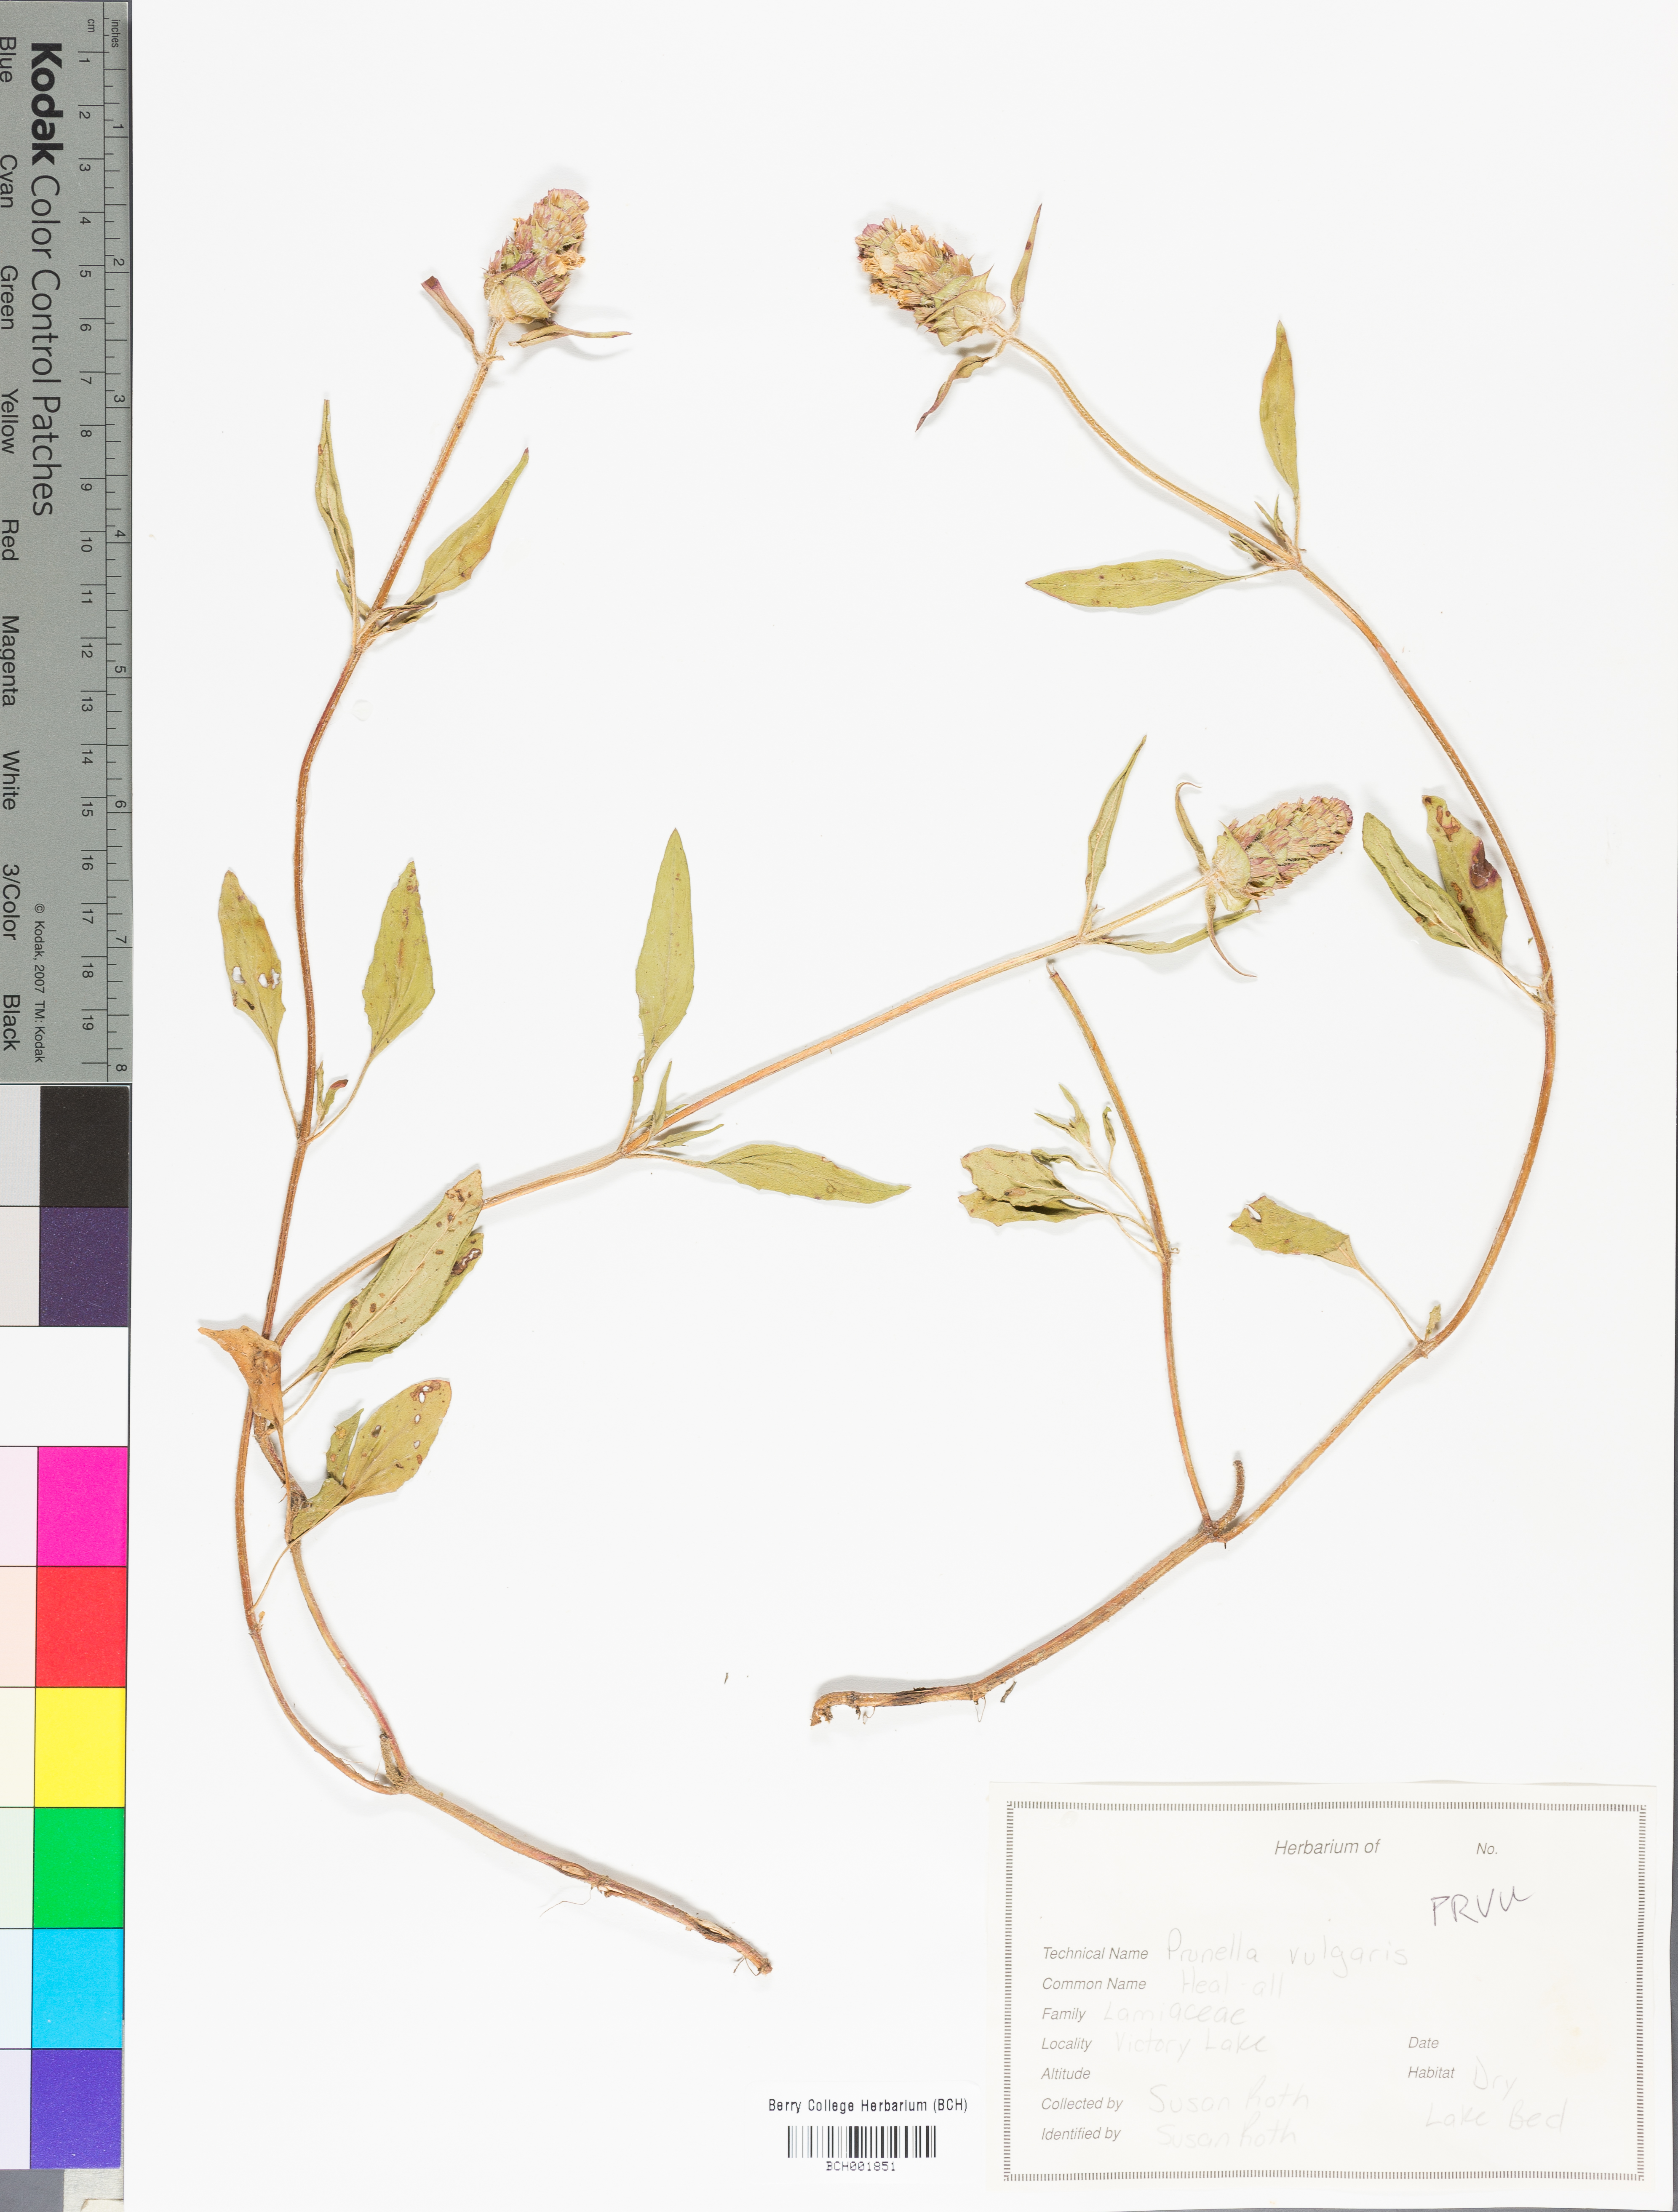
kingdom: Plantae
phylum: Tracheophyta
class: Magnoliopsida
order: Lamiales
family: Lamiaceae
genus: Prunella
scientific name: Prunella vulgaris
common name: Heal-all
